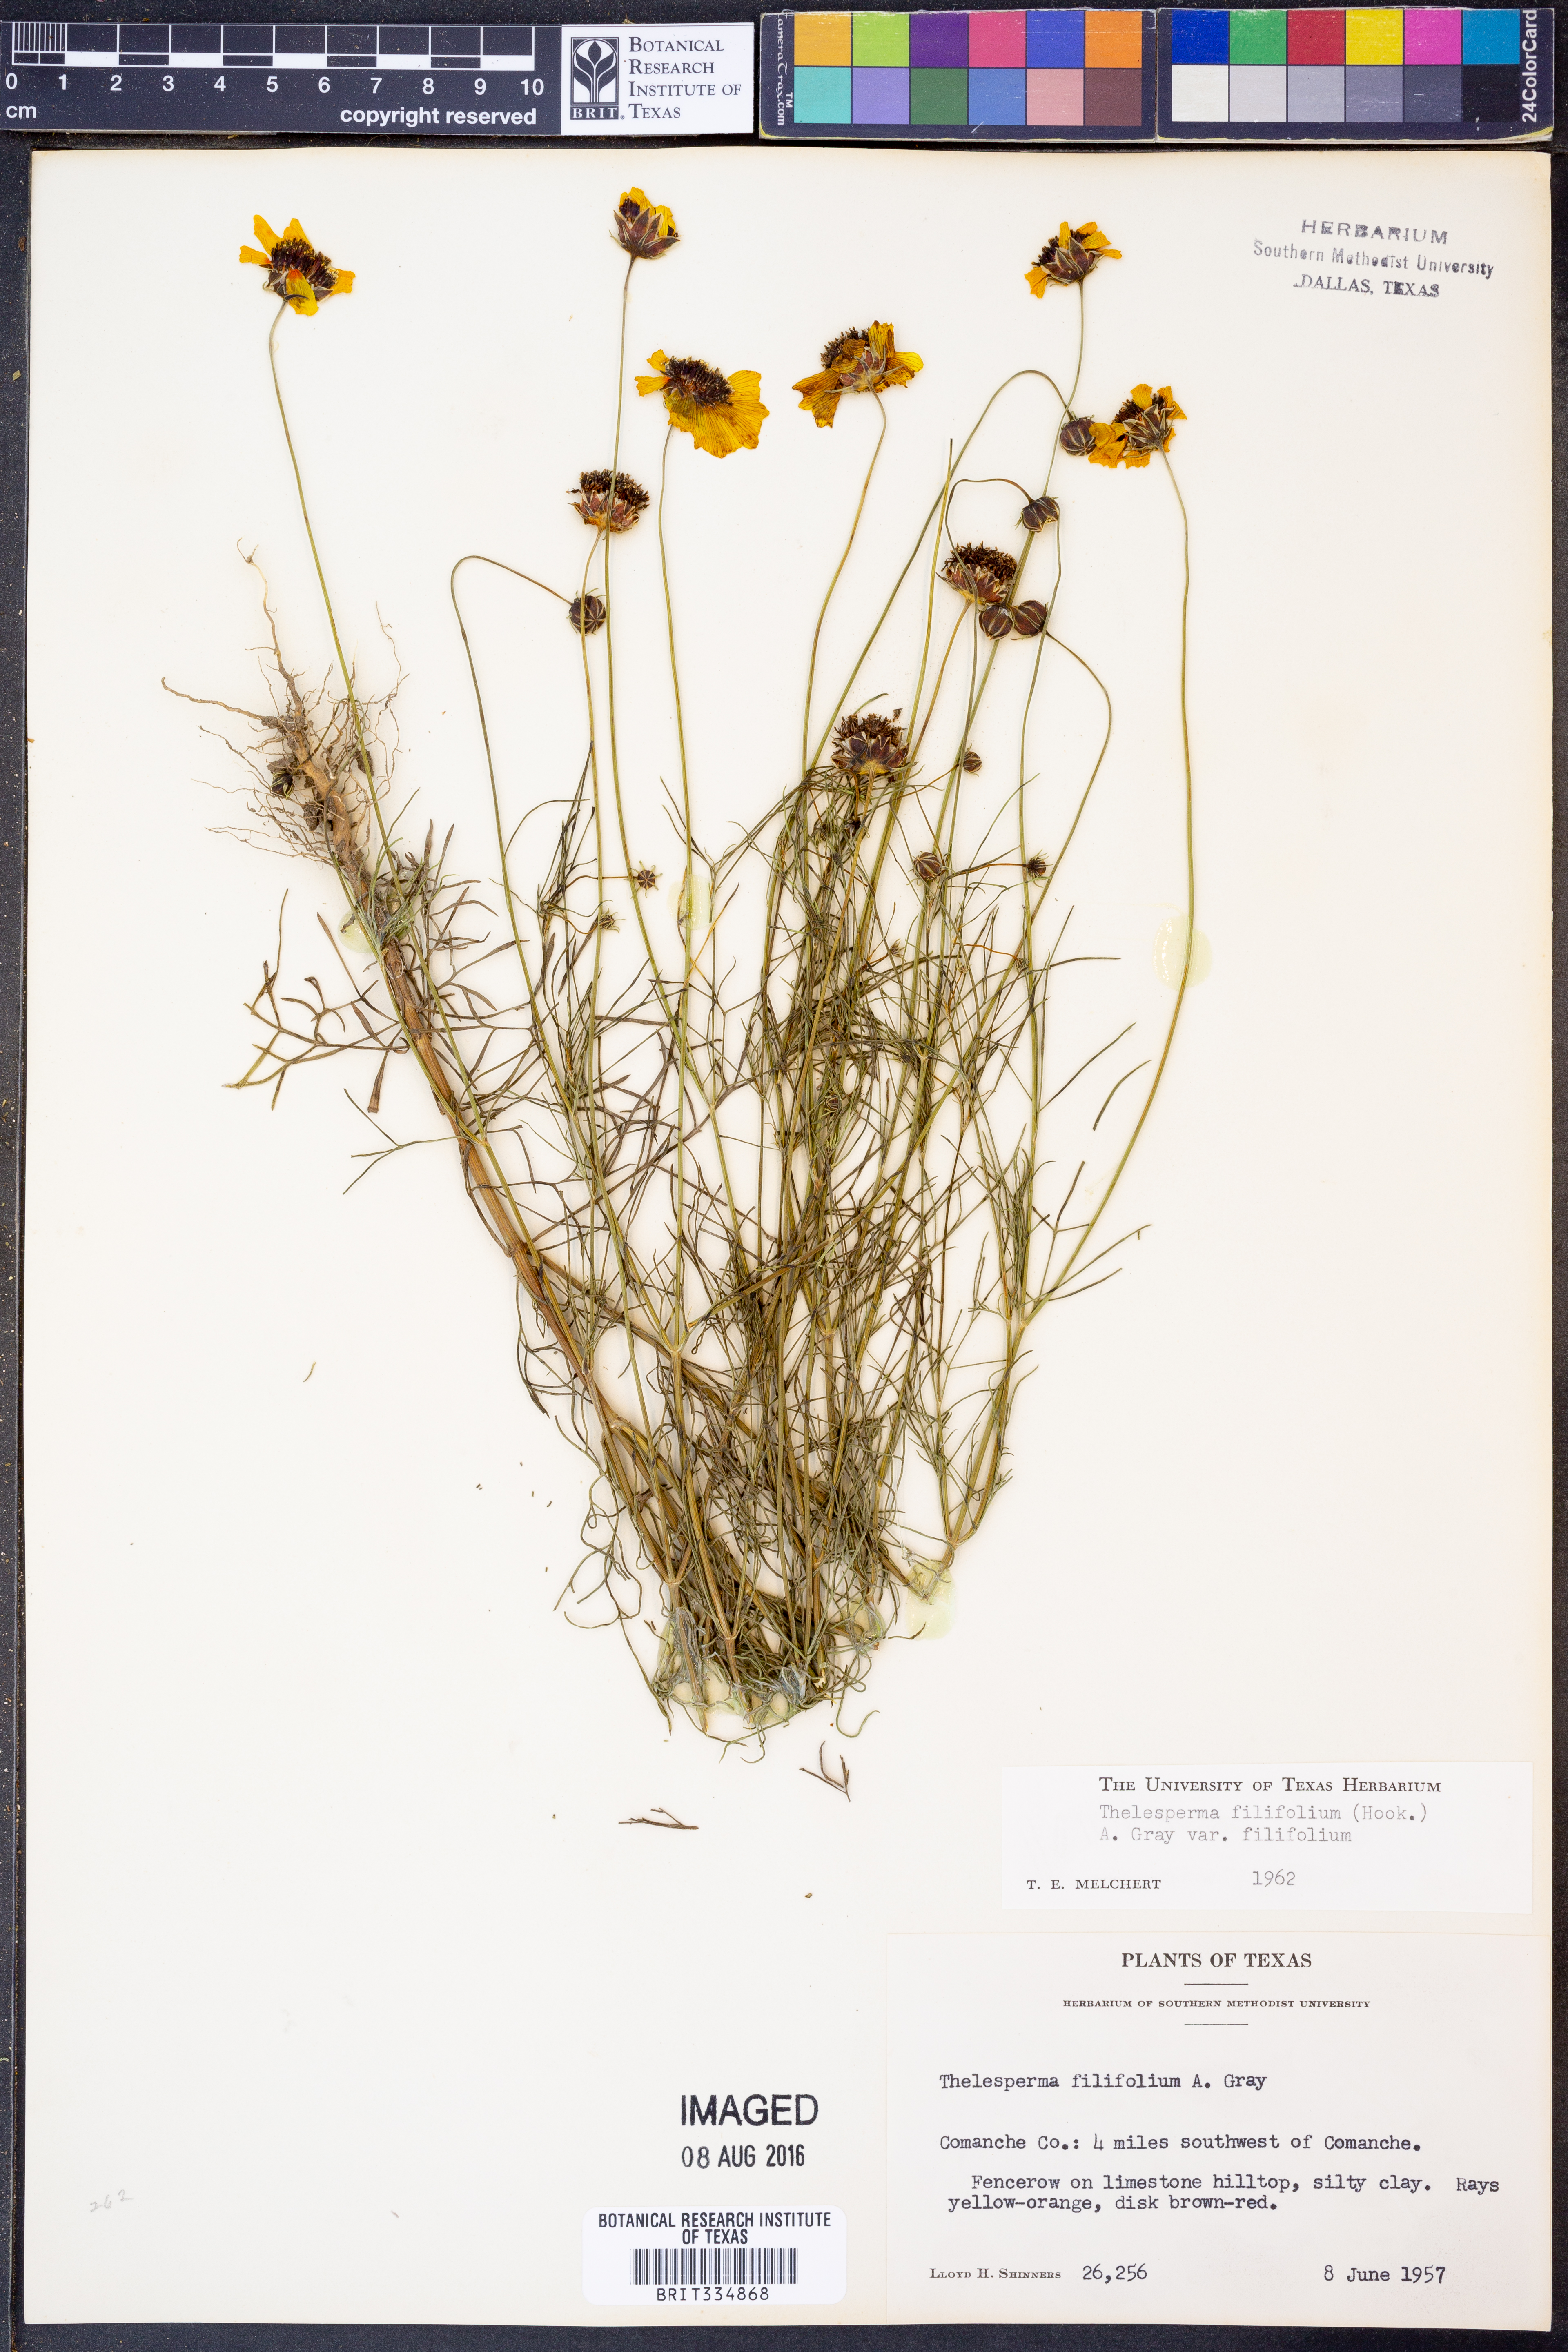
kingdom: Plantae
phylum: Tracheophyta
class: Magnoliopsida
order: Asterales
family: Asteraceae
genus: Thelesperma
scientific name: Thelesperma filifolium
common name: Stiff greenthread
